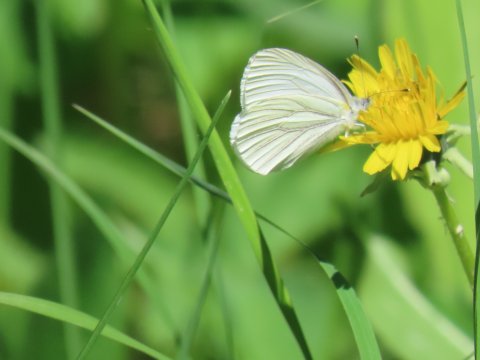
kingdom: Animalia
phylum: Arthropoda
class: Insecta
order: Lepidoptera
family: Pieridae
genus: Pieris
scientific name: Pieris oleracea
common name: Mustard White
